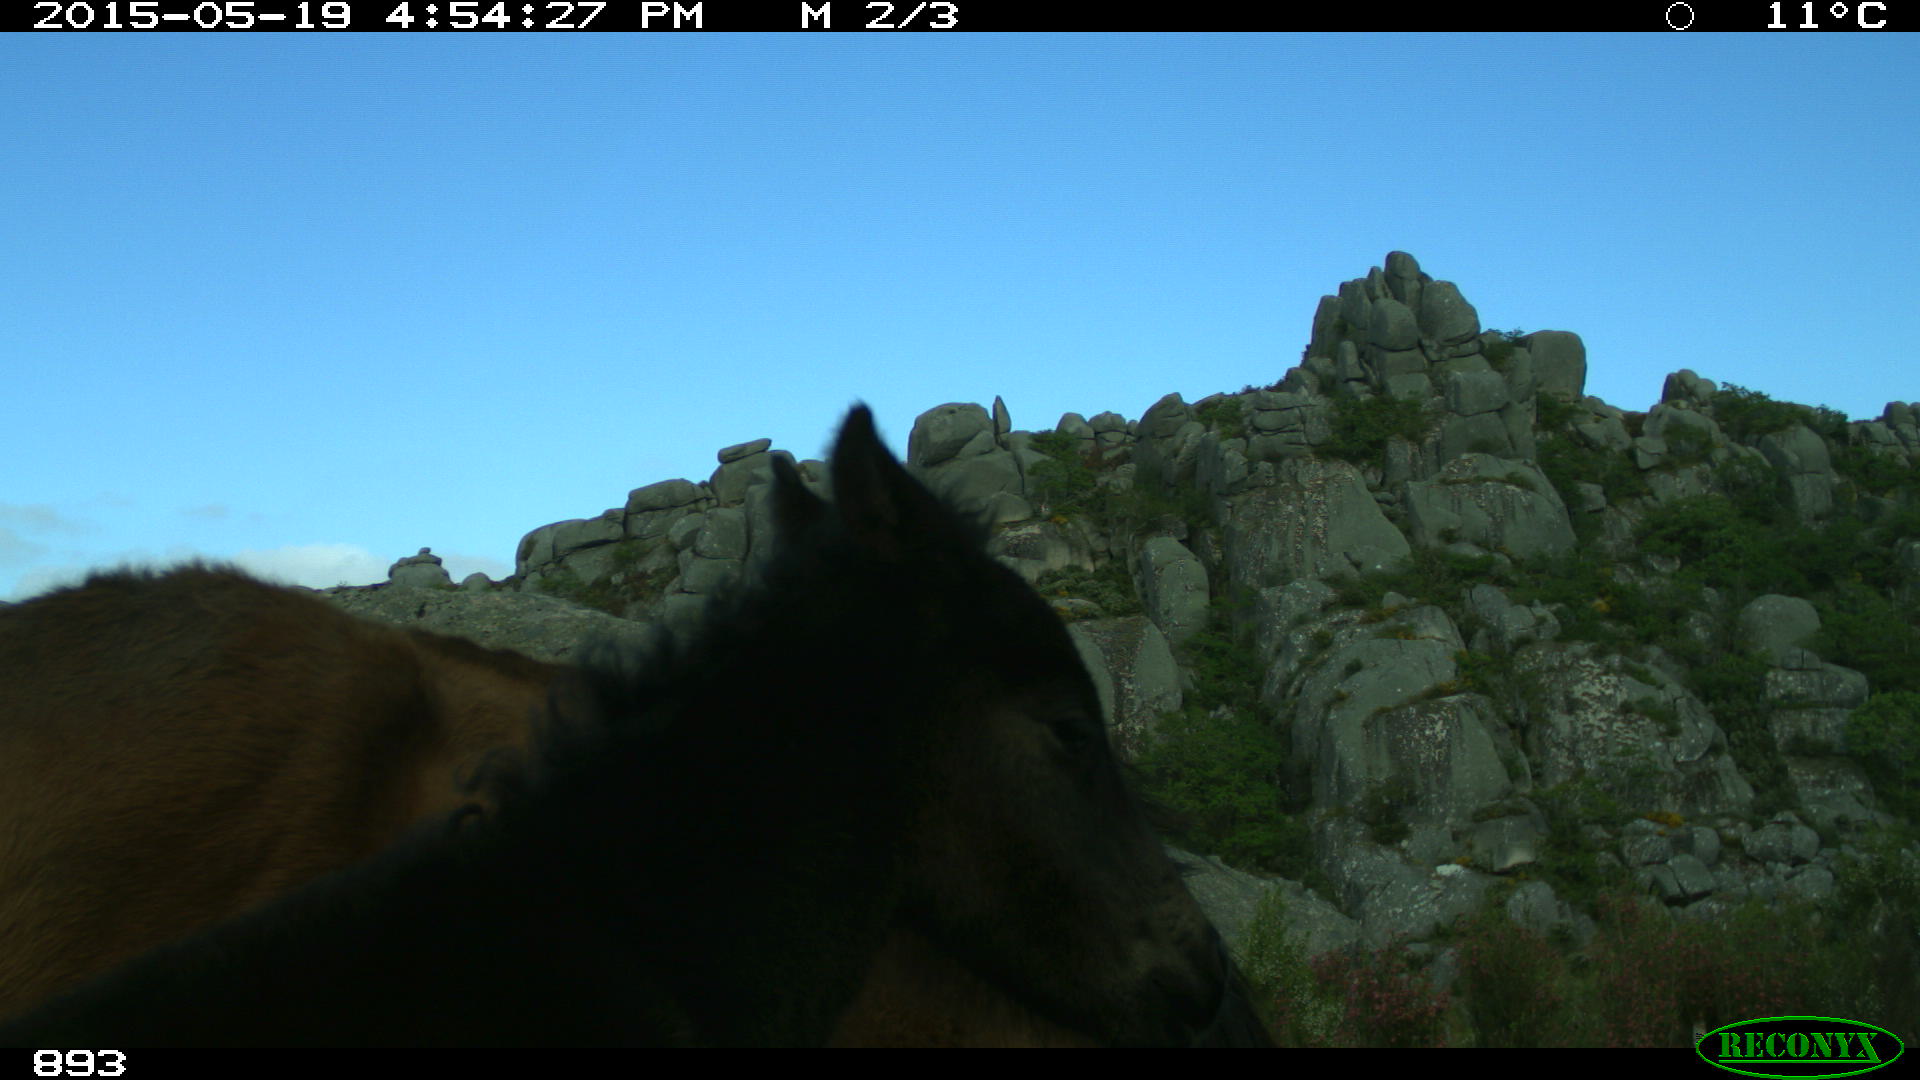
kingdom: Animalia
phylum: Chordata
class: Mammalia
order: Perissodactyla
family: Equidae
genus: Equus
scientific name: Equus caballus
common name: Horse
